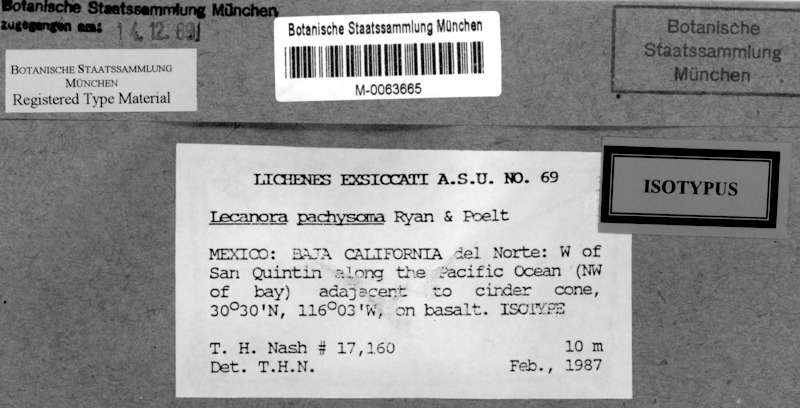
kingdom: Fungi
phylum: Ascomycota
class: Lecanoromycetes
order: Lecanorales
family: Lecanoraceae
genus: Lecanora
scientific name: Lecanora pachysoma
